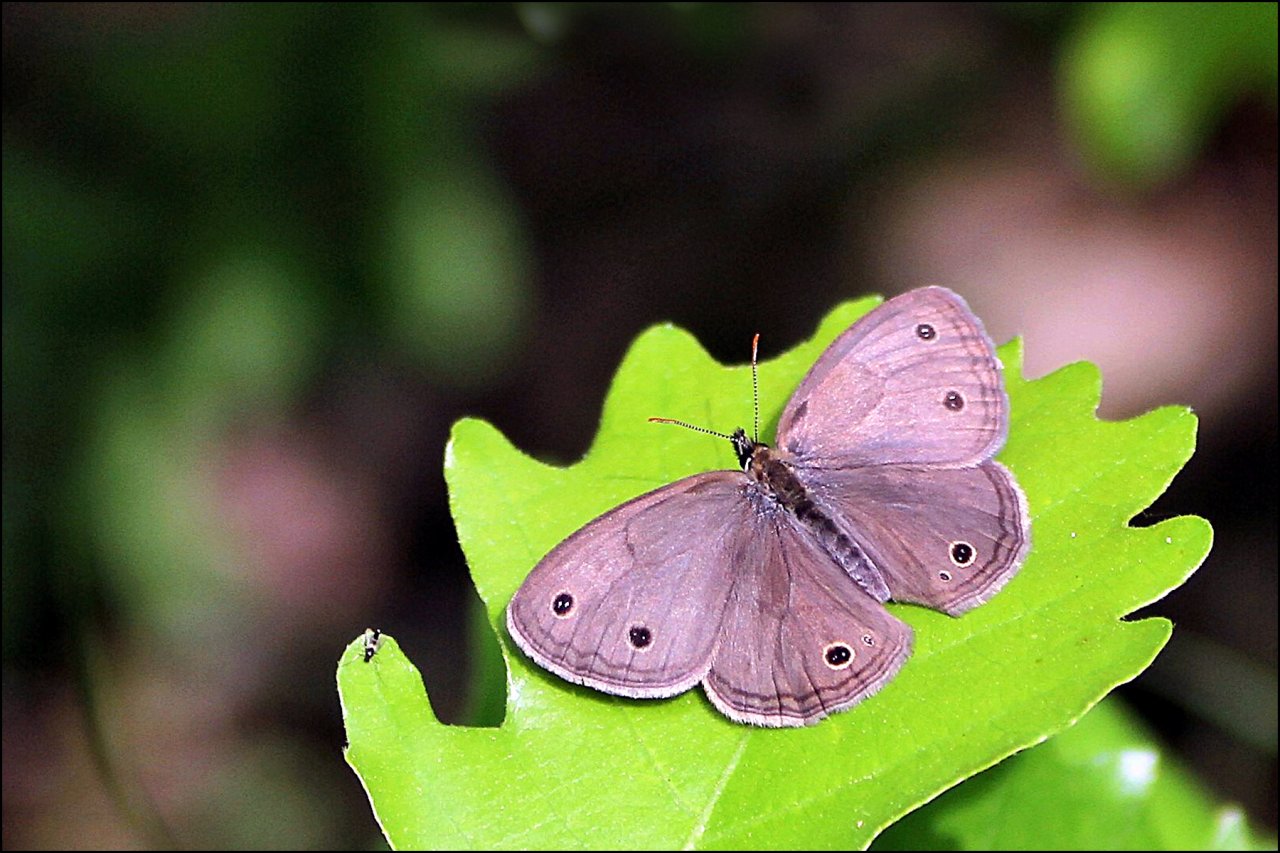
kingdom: Animalia
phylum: Arthropoda
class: Insecta
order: Lepidoptera
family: Nymphalidae
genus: Euptychia
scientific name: Euptychia cymela
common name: Little Wood Satyr
